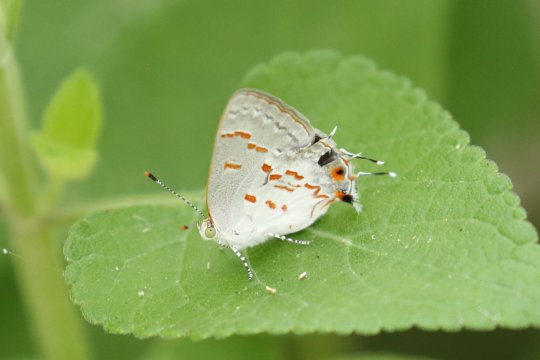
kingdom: Animalia
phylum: Arthropoda
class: Insecta
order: Lepidoptera
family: Lycaenidae
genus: Ministrymon
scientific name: Ministrymon clytie
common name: Clytie Ministreak
